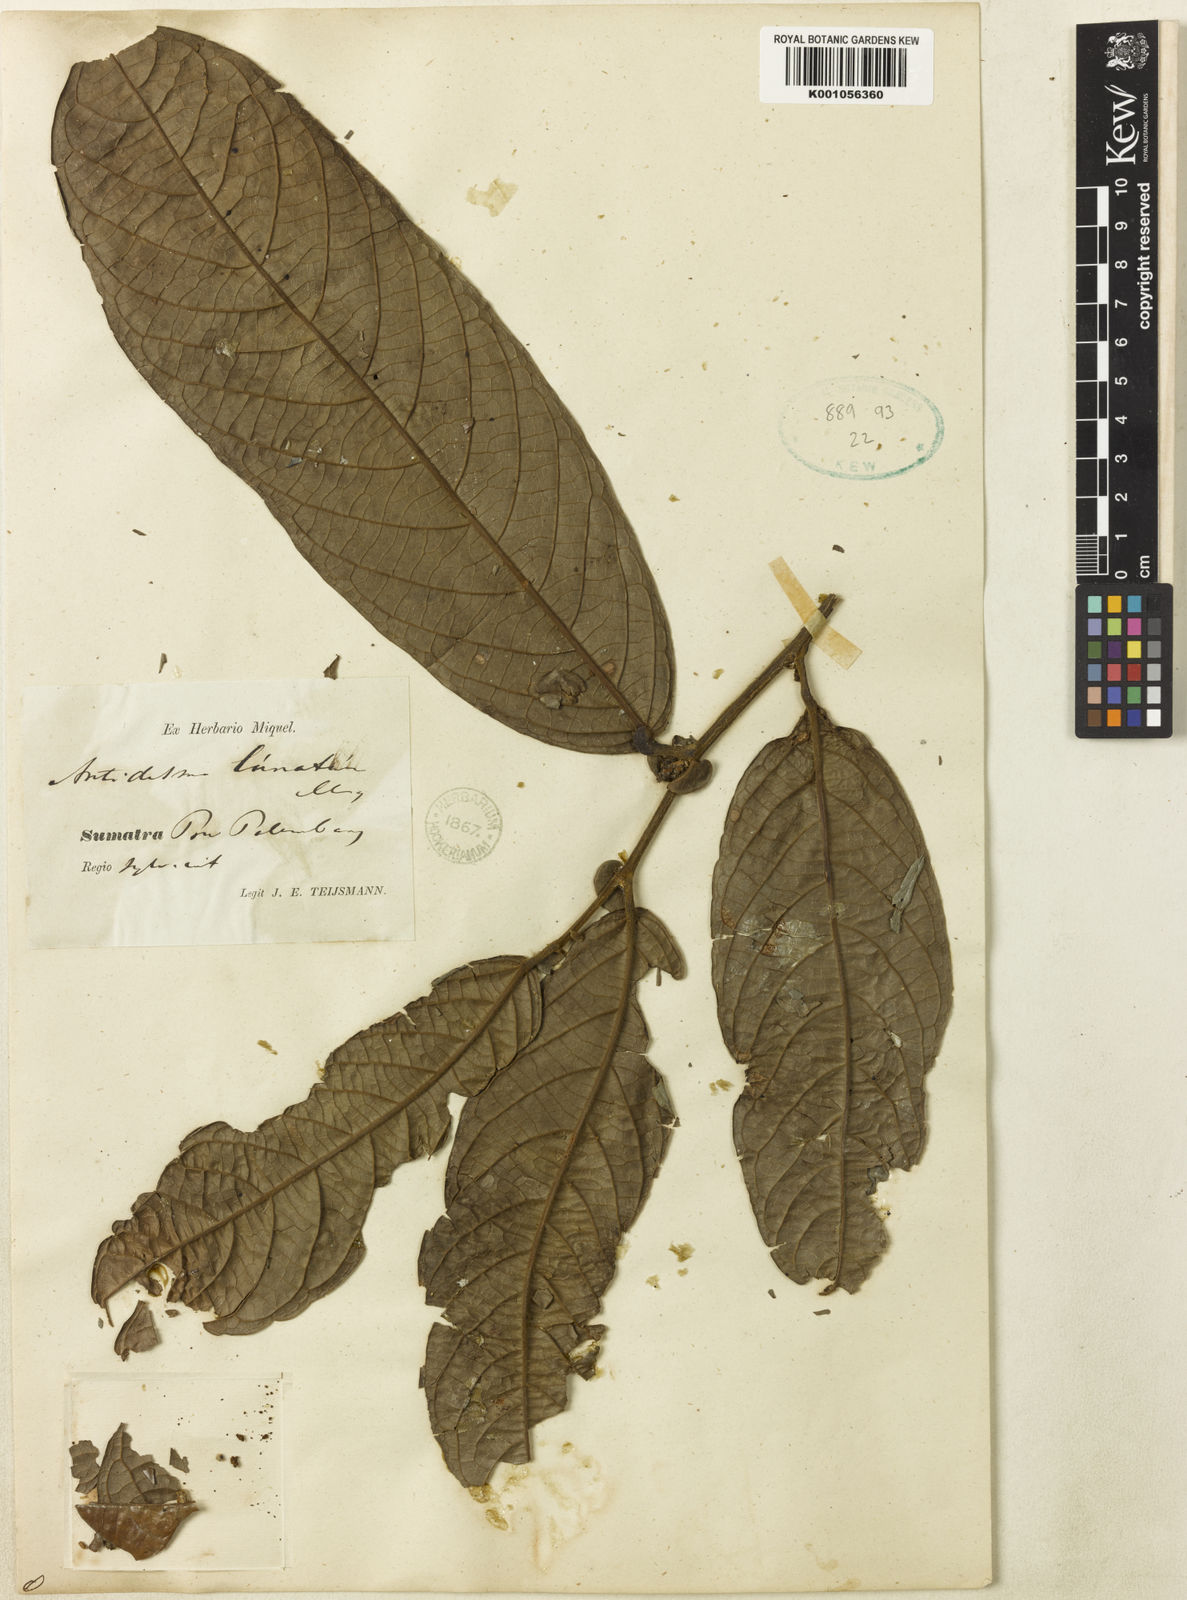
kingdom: Plantae
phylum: Tracheophyta
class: Magnoliopsida
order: Malpighiales
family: Phyllanthaceae
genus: Aporosa
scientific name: Aporosa lunata
